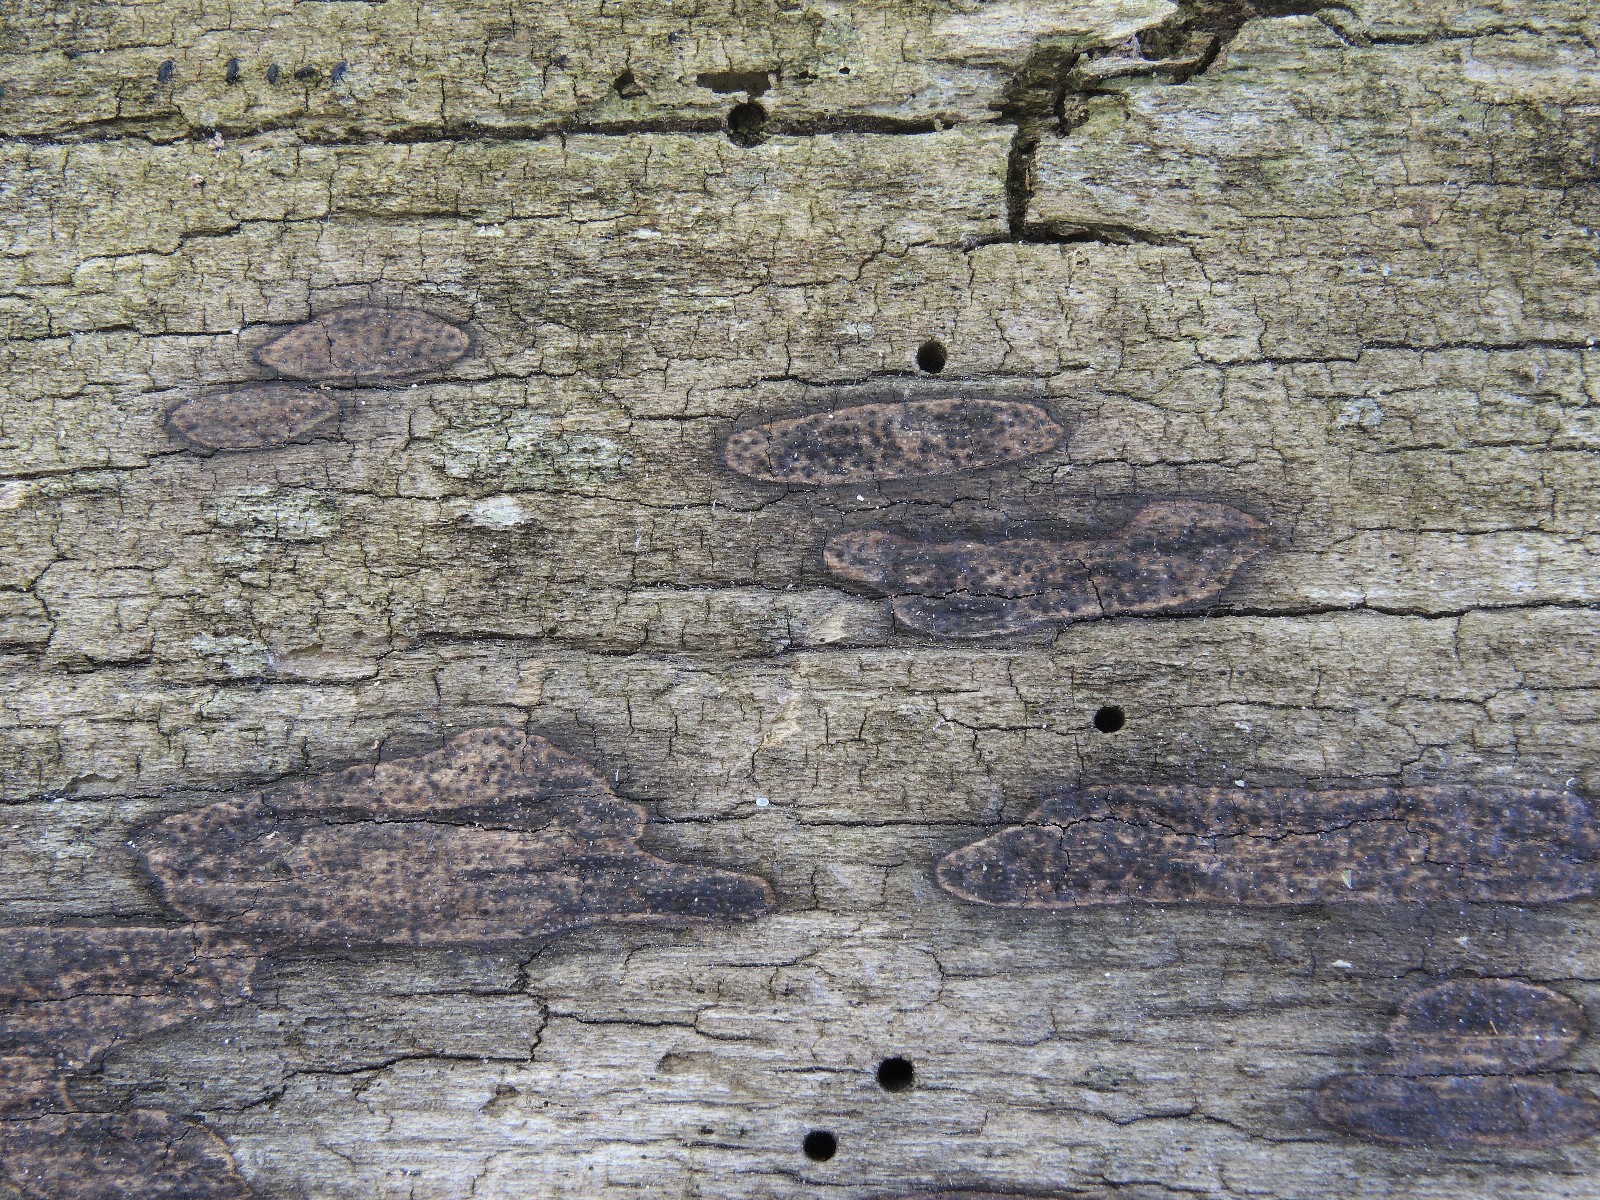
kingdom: Fungi
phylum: Ascomycota
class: Sordariomycetes
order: Xylariales
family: Lopadostomataceae
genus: Lopadostoma
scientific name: Lopadostoma pouzarii
